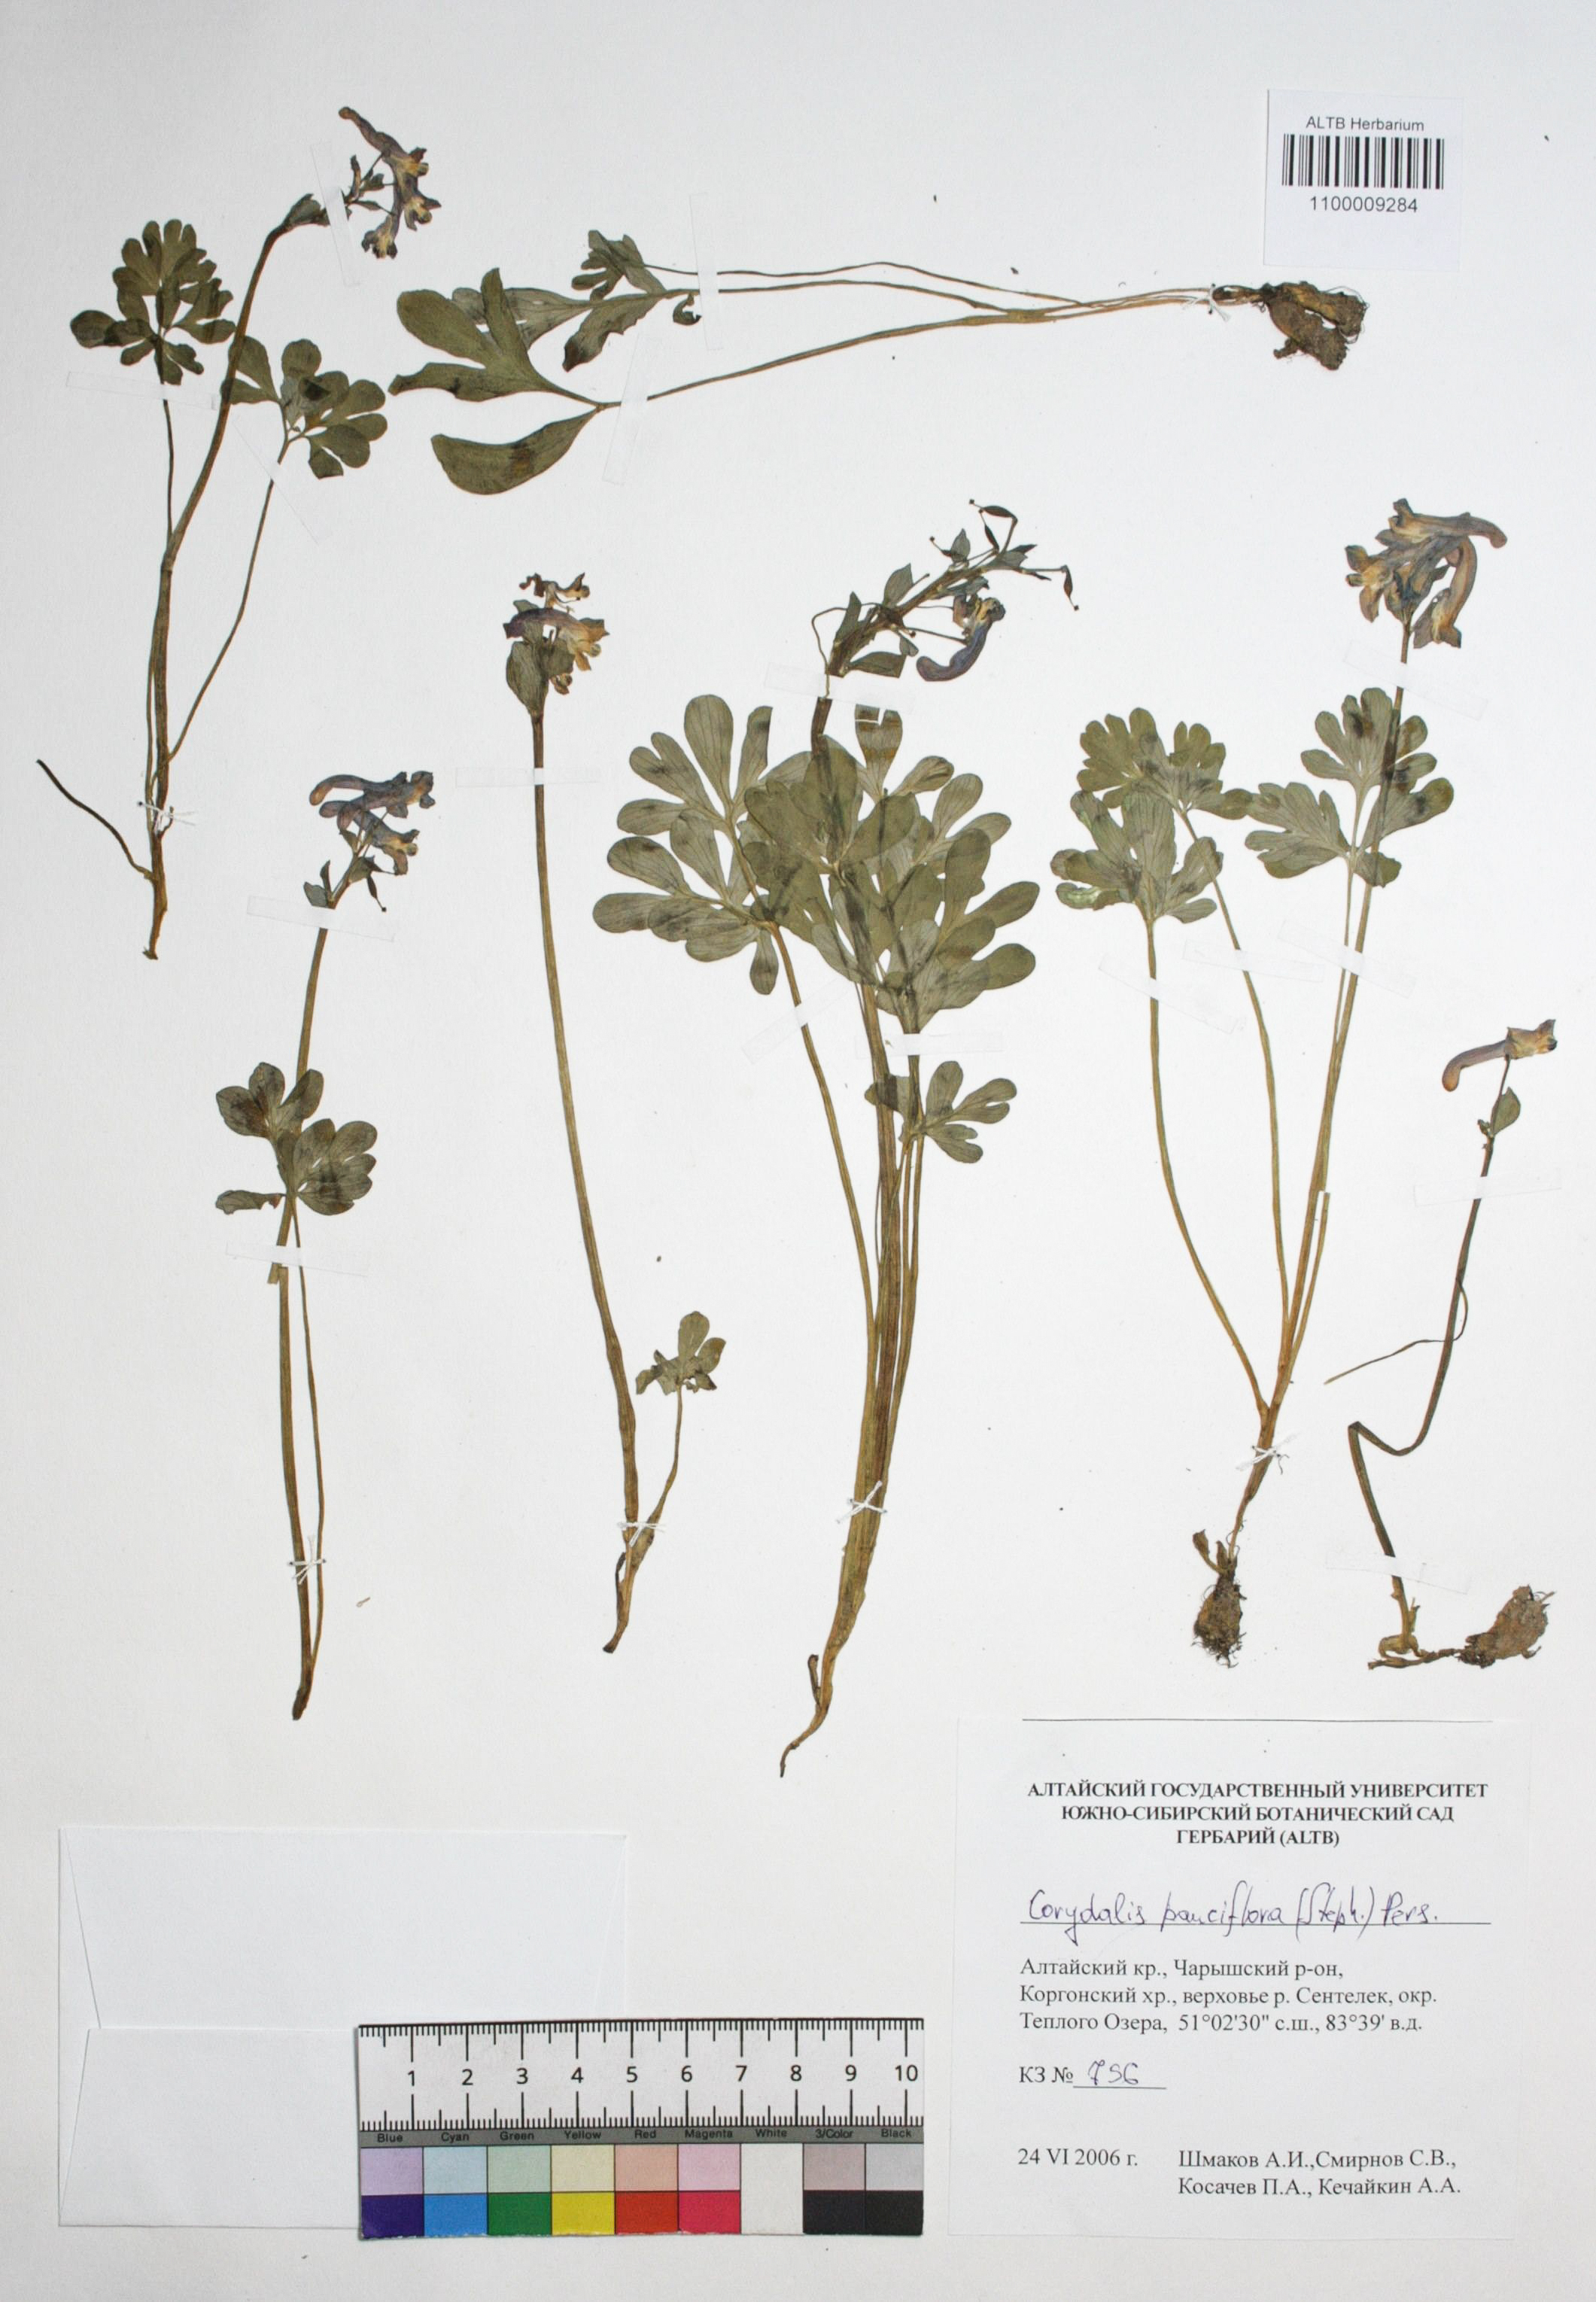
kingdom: Plantae
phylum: Tracheophyta
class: Magnoliopsida
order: Ranunculales
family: Papaveraceae
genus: Corydalis
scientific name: Corydalis pauciflora
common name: Blue corydalis
